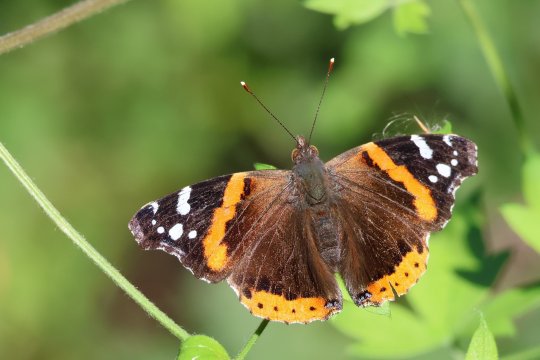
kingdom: Animalia
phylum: Arthropoda
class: Insecta
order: Lepidoptera
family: Nymphalidae
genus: Vanessa
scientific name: Vanessa atalanta
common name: Red Admiral
